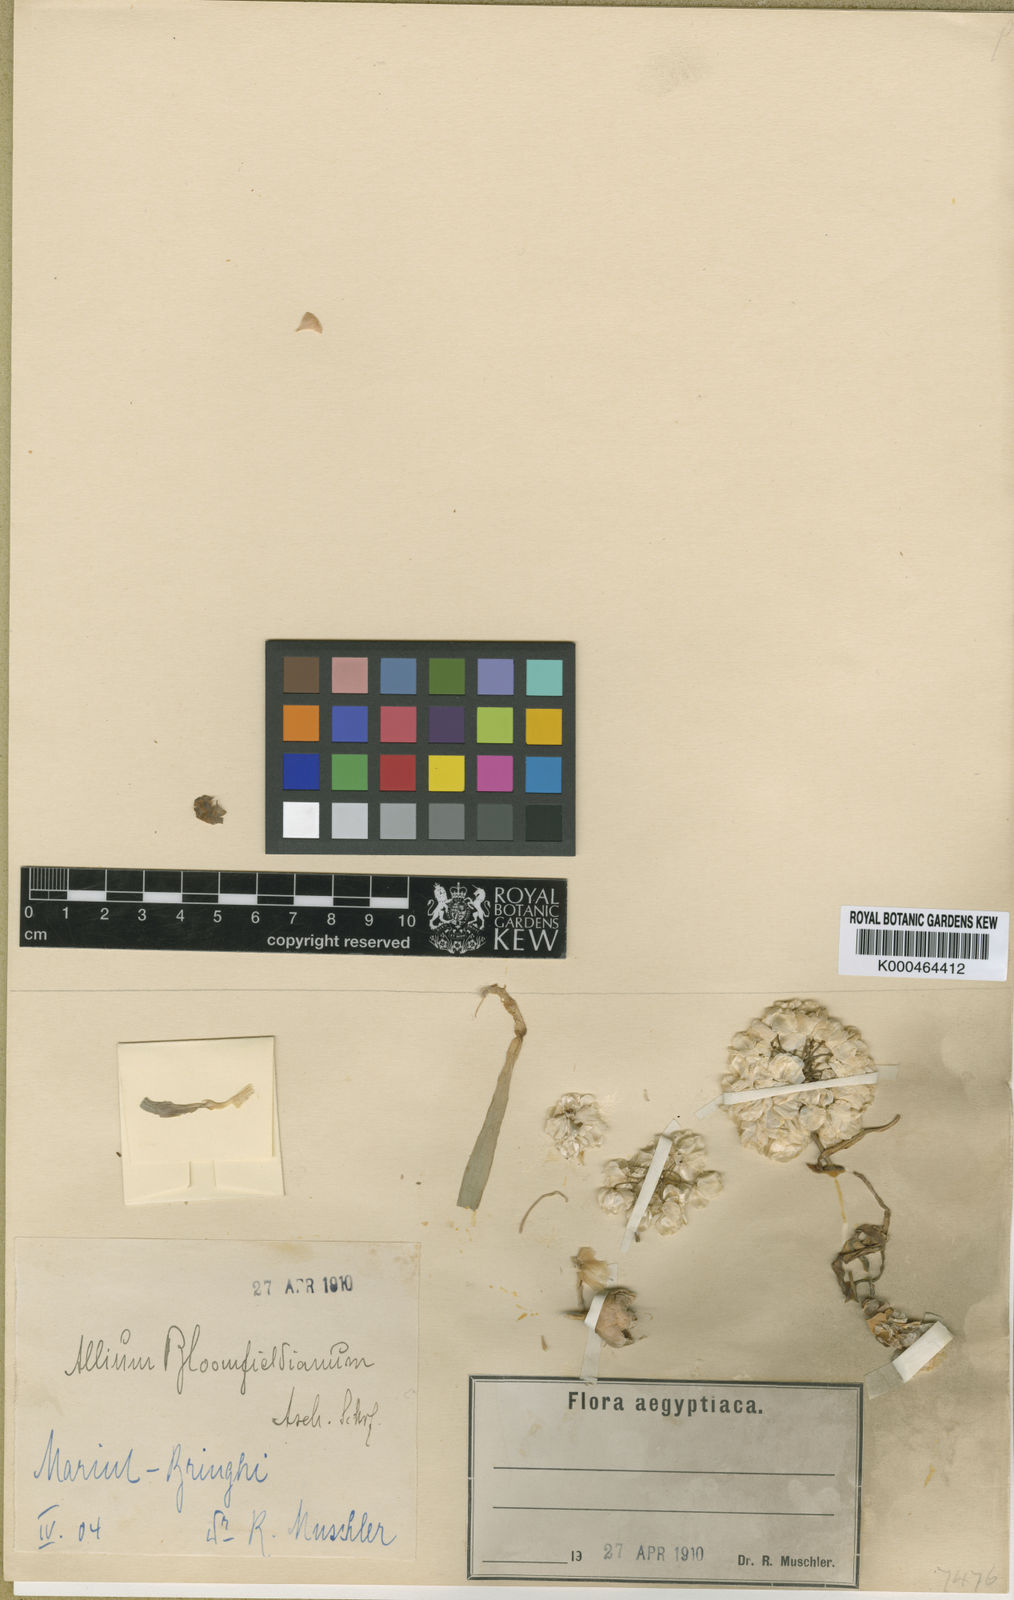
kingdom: Plantae
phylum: Tracheophyta
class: Liliopsida
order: Asparagales
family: Amaryllidaceae
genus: Allium
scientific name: Allium blomfieldianum
